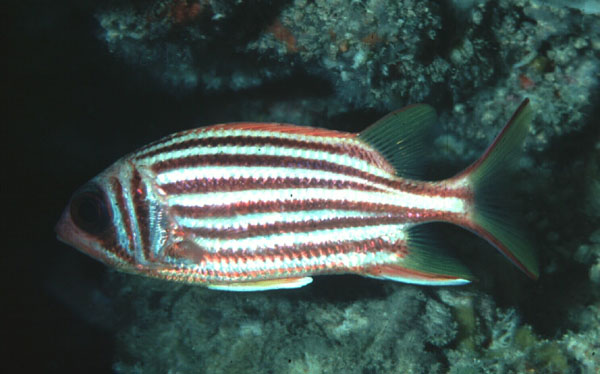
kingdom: Animalia
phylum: Chordata
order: Beryciformes
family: Holocentridae
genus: Sargocentron
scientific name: Sargocentron seychellense
